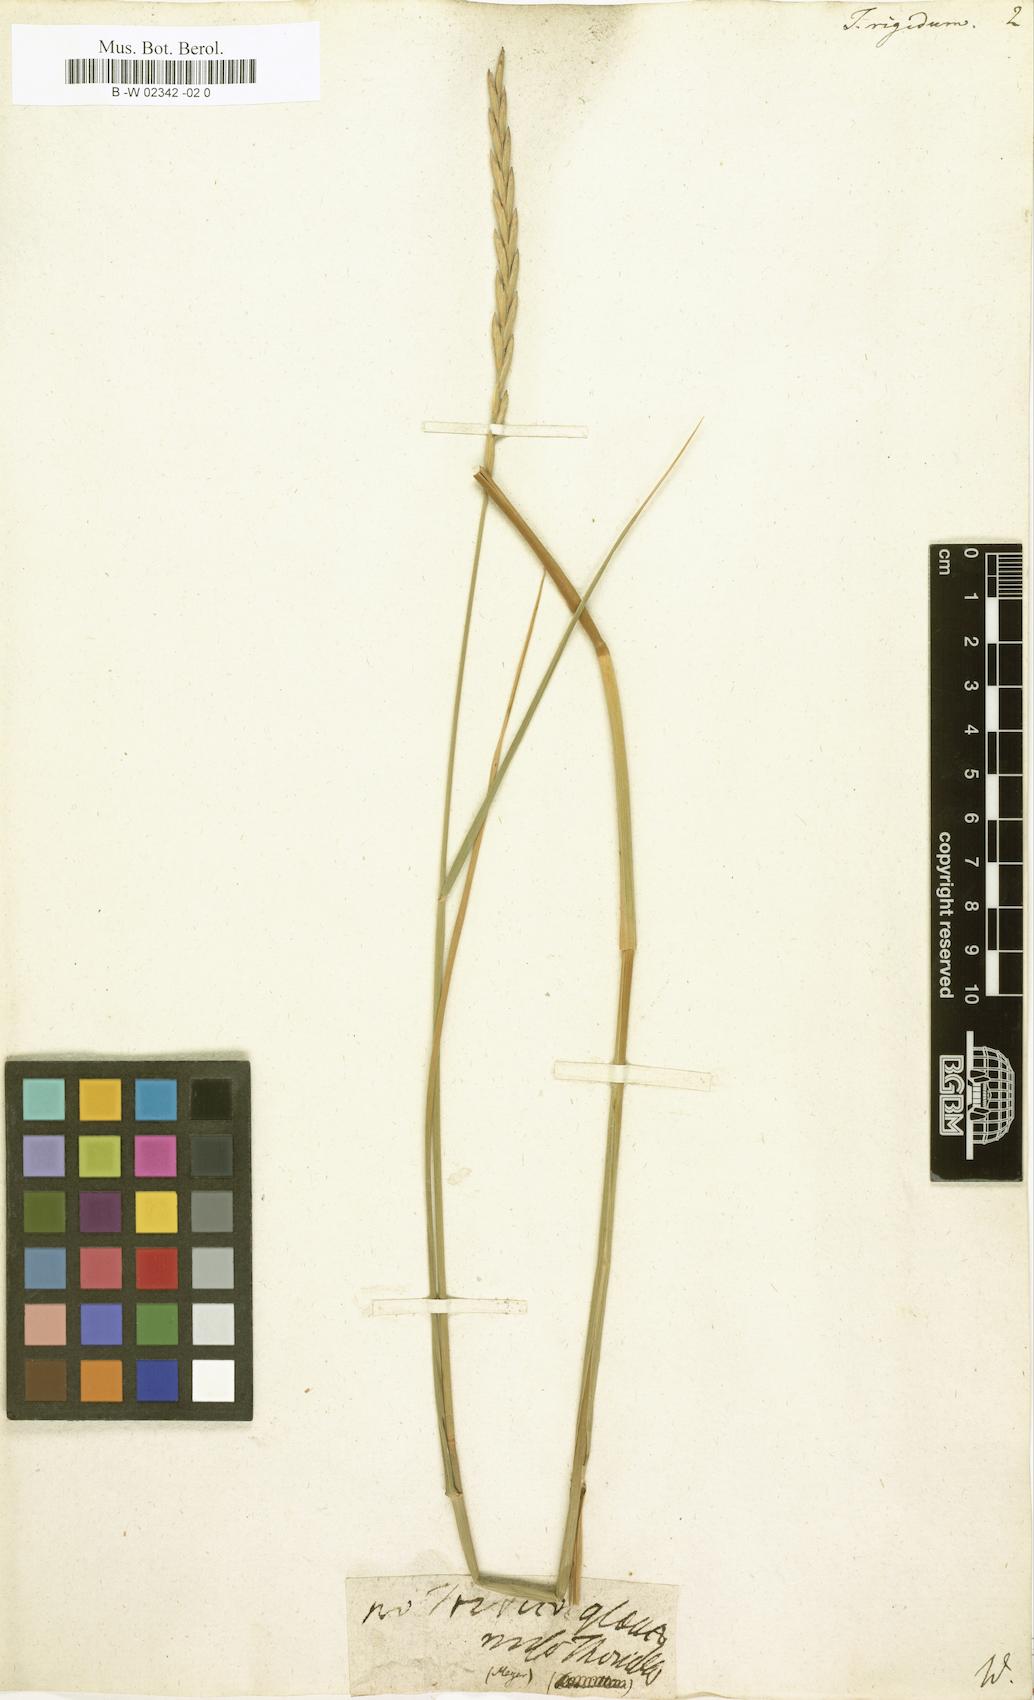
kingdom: Plantae
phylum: Tracheophyta
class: Liliopsida
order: Poales
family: Poaceae
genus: Thinopyrum
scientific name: Thinopyrum
